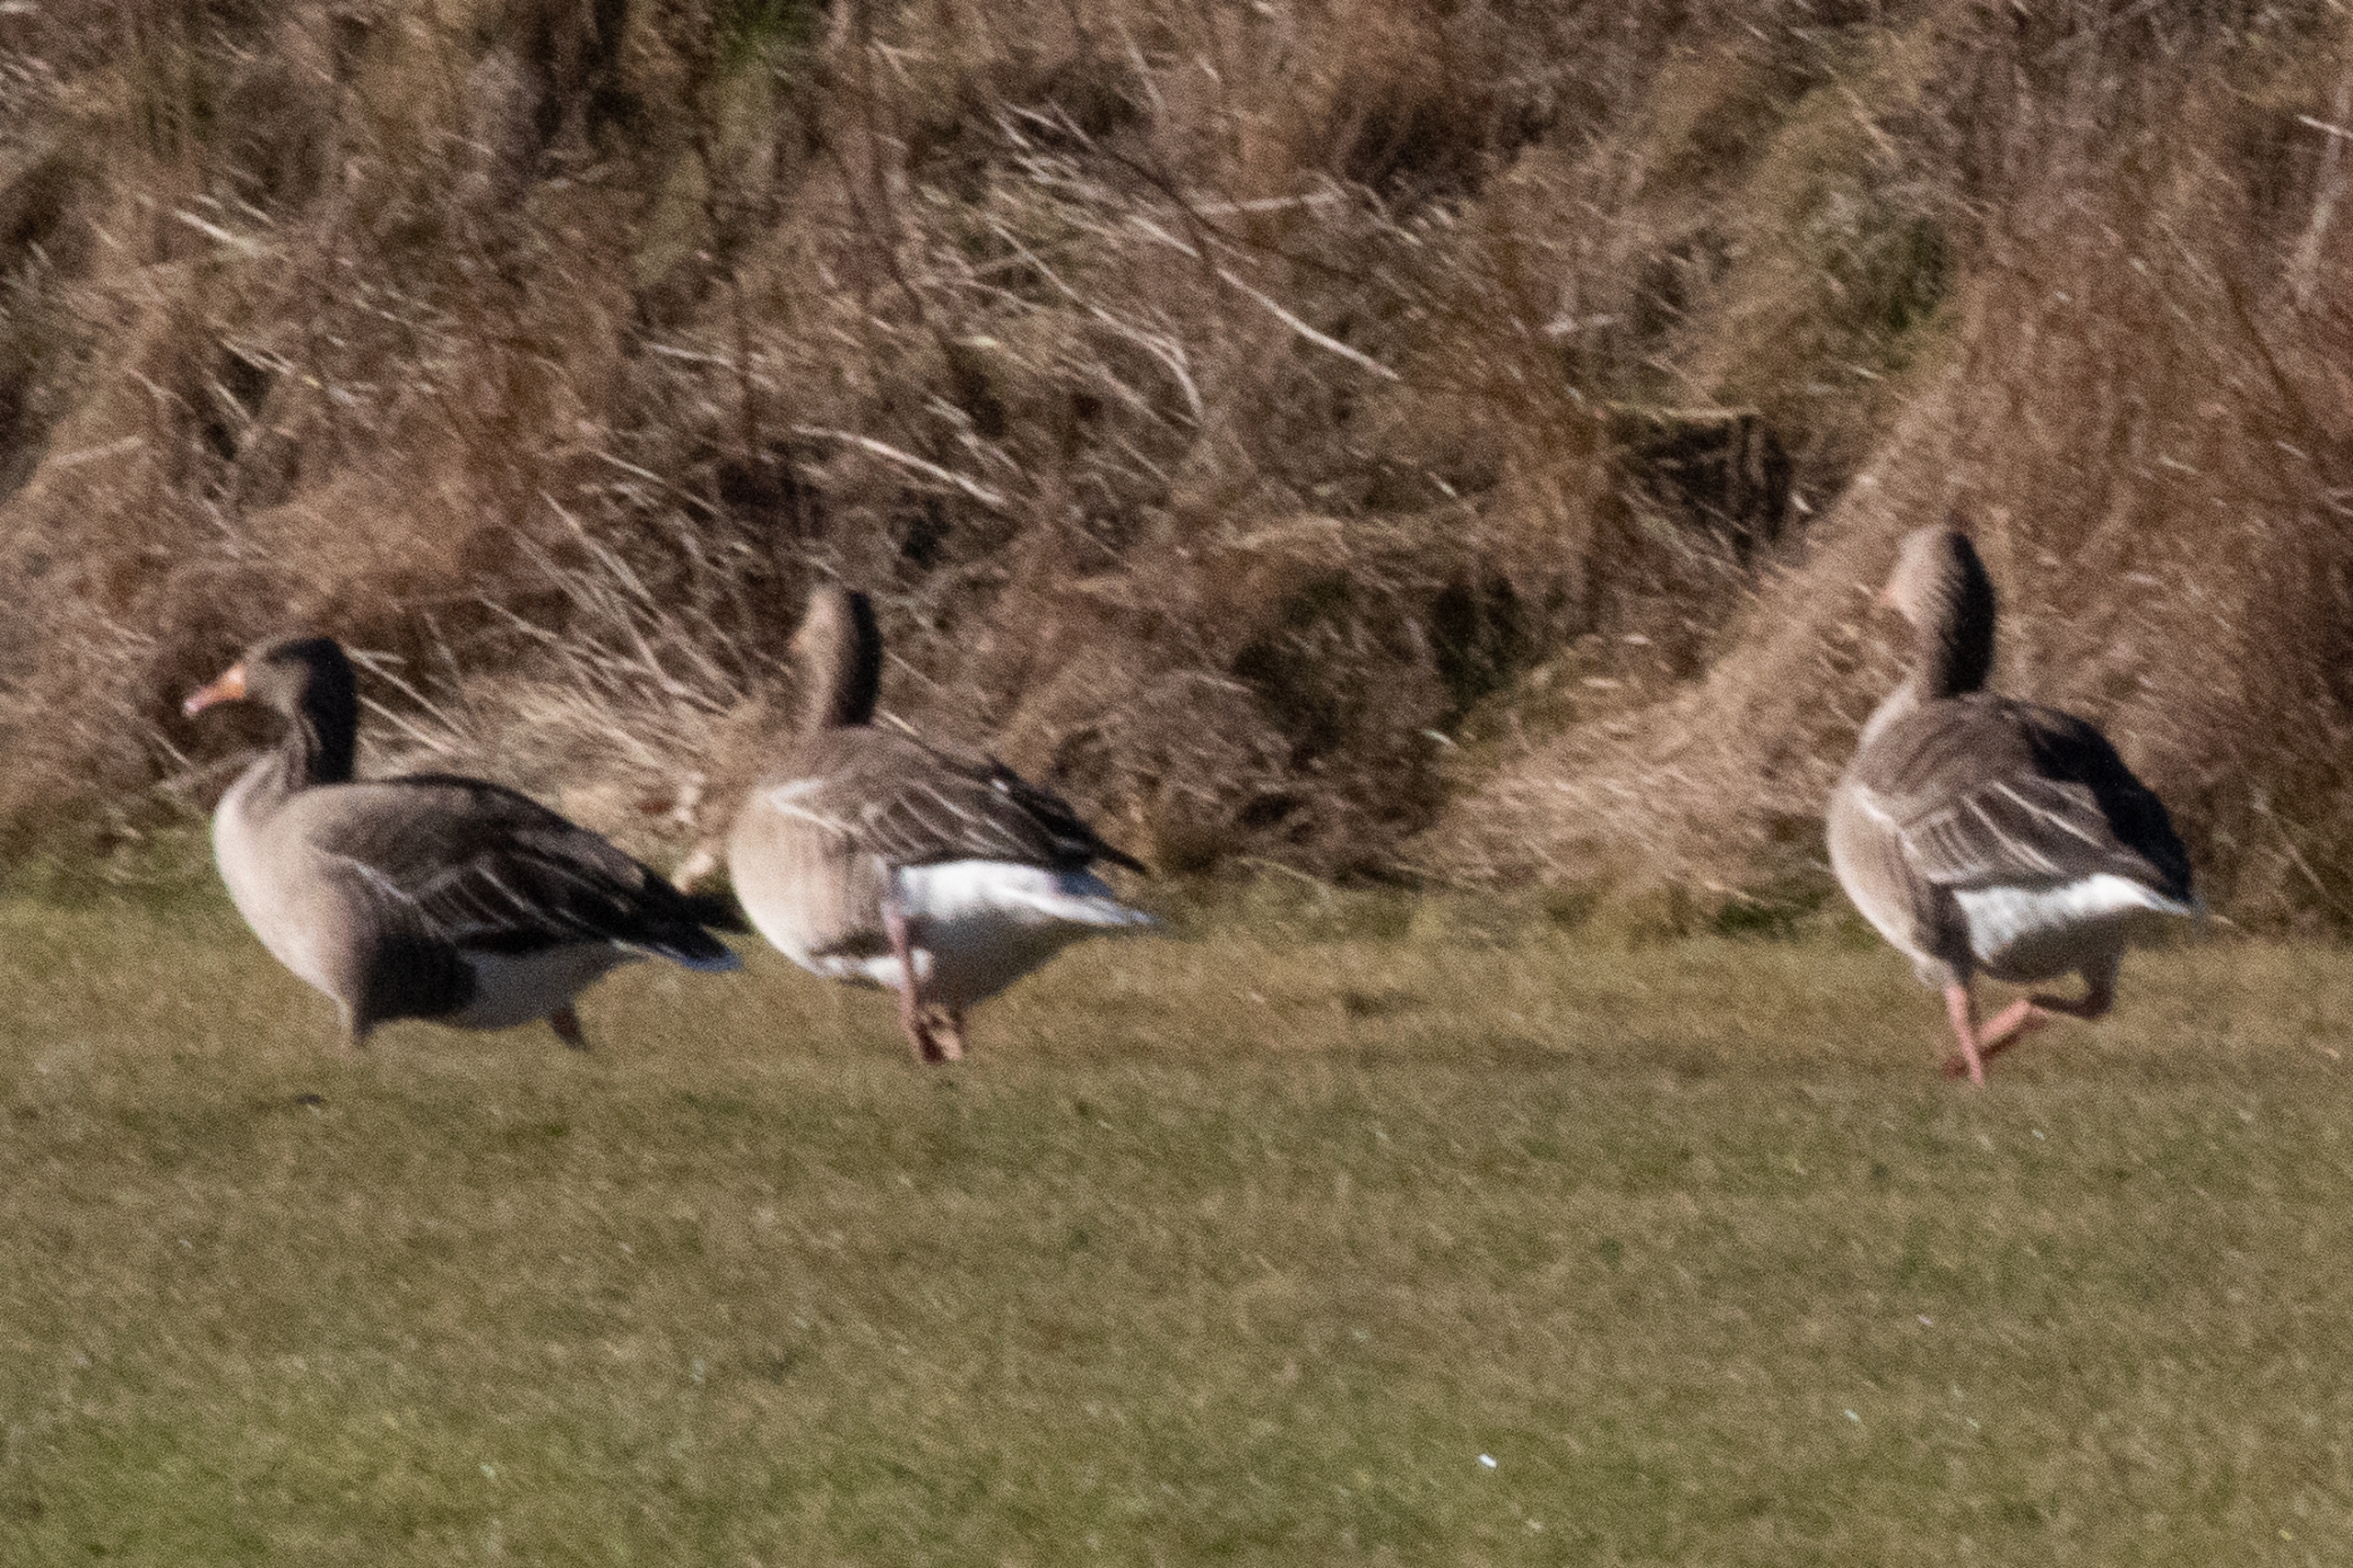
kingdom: Animalia
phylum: Chordata
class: Aves
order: Anseriformes
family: Anatidae
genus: Anser
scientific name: Anser anser
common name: Grågås
